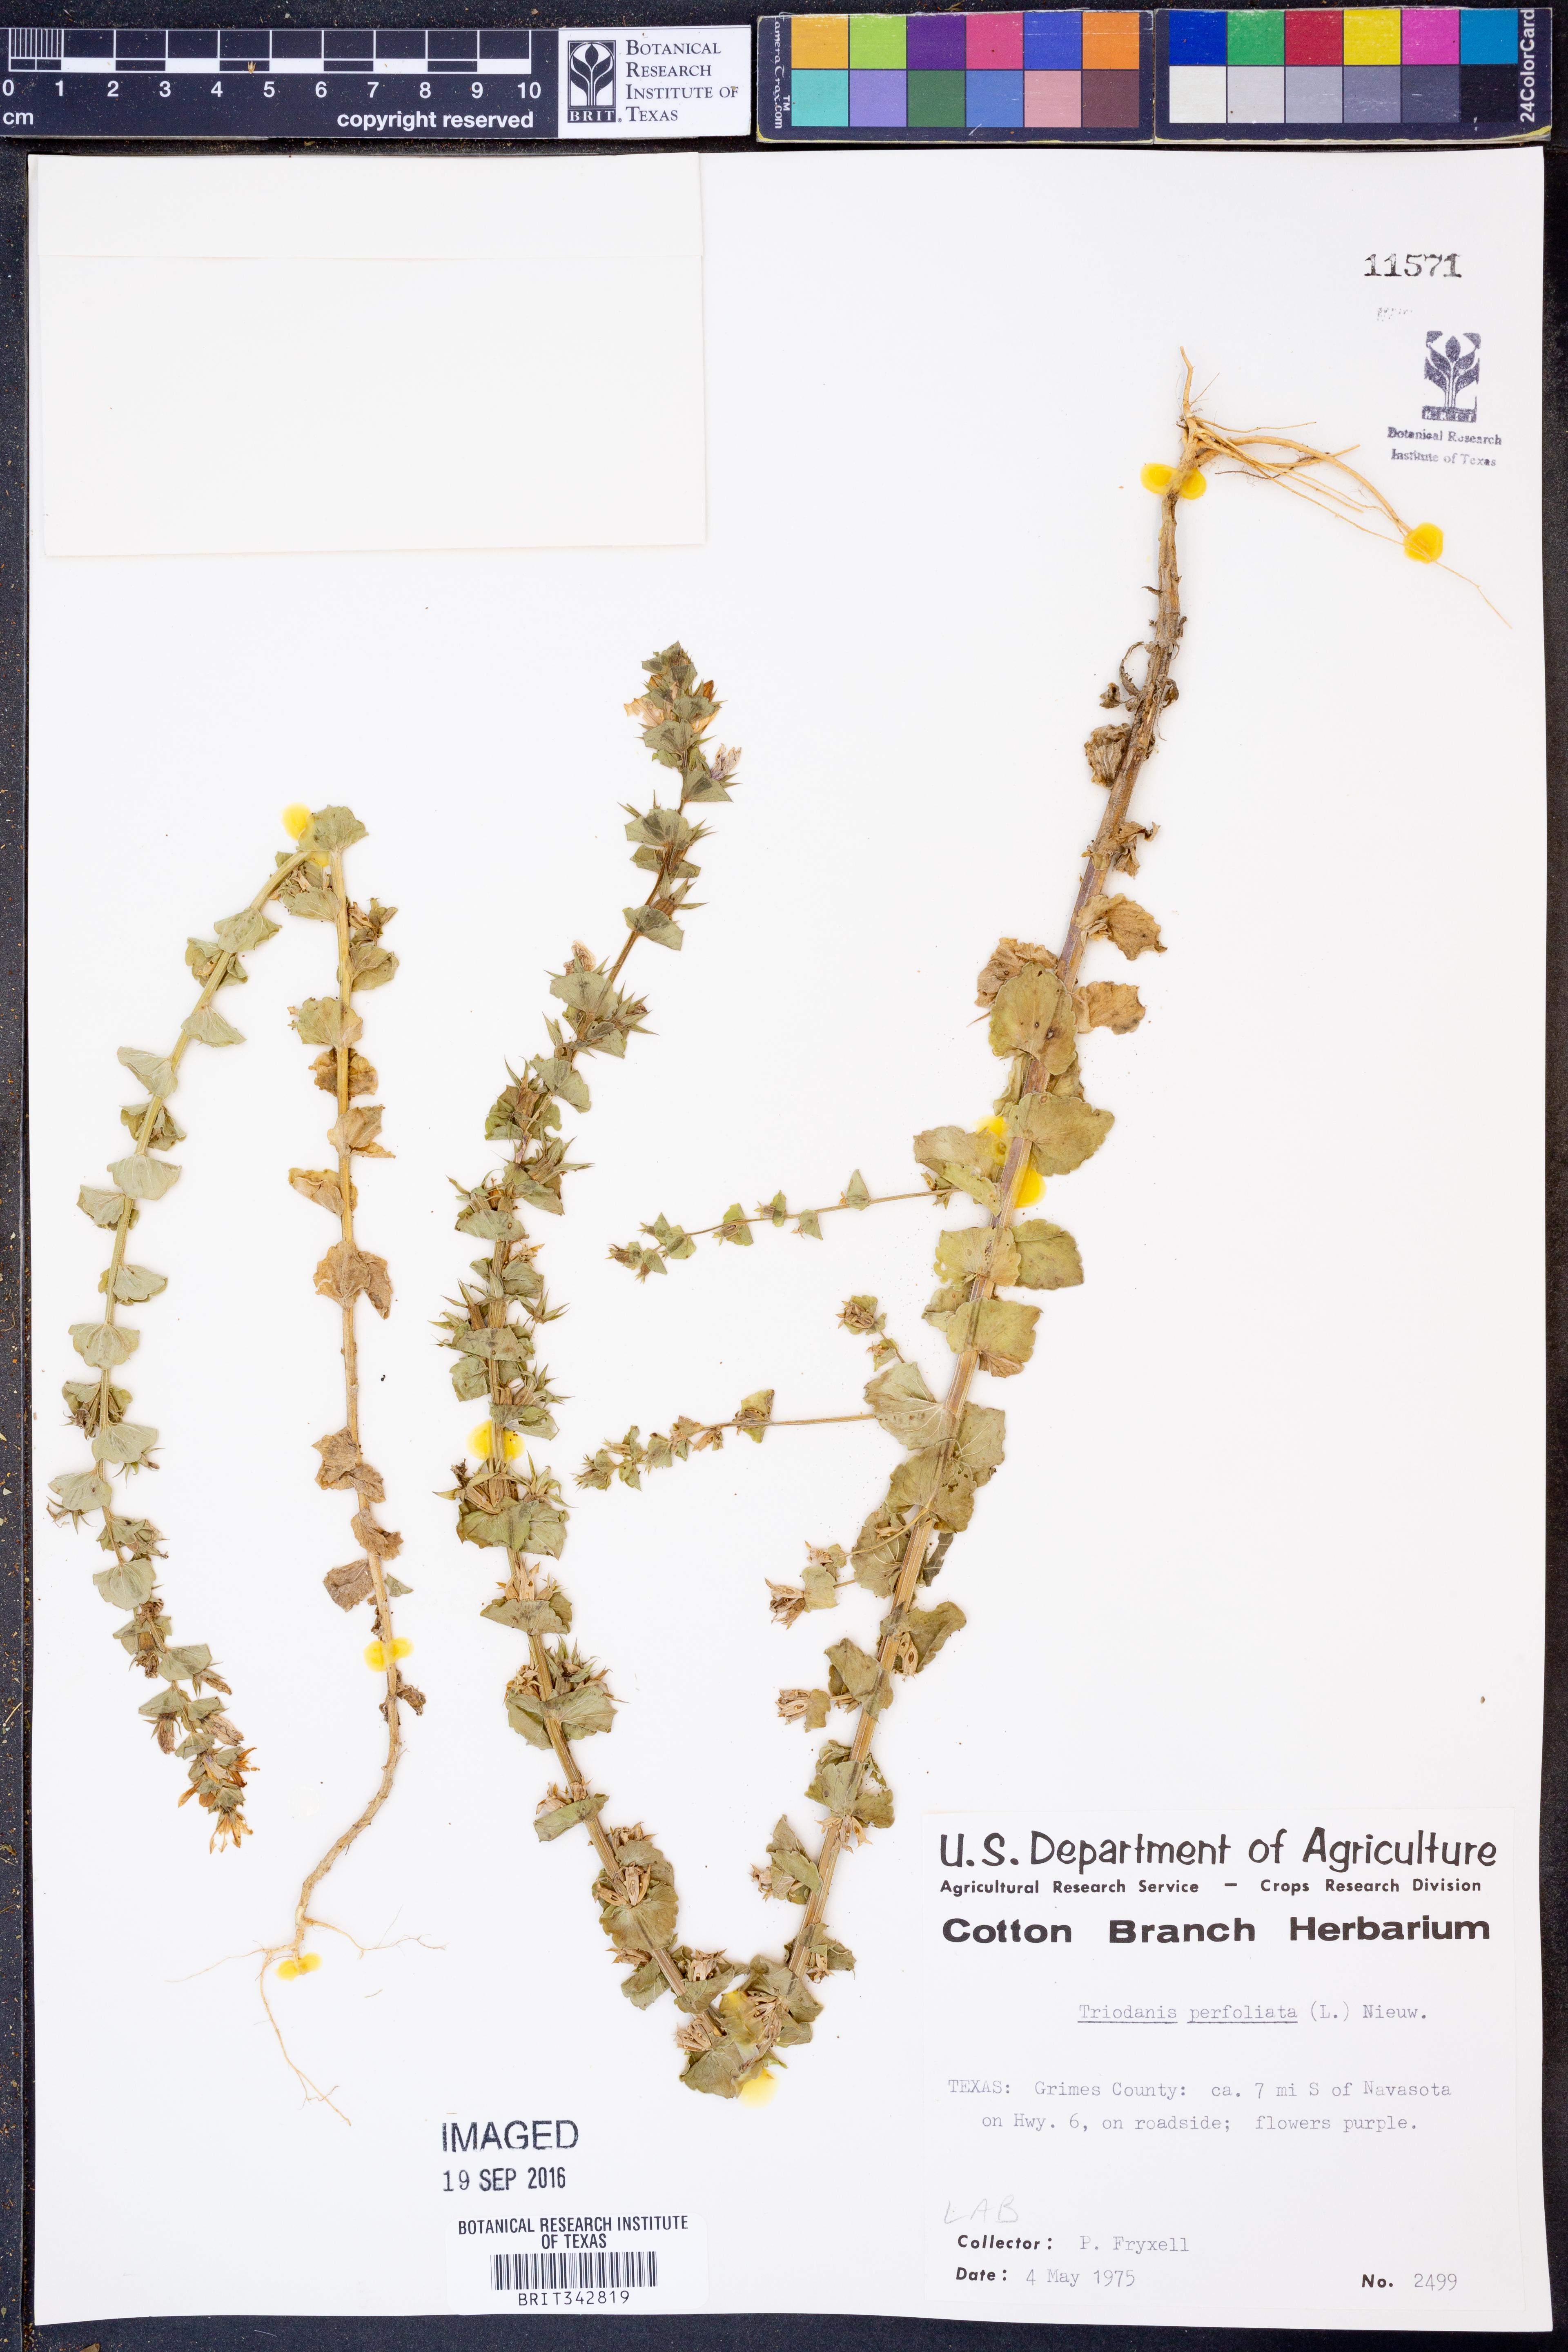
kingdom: Plantae
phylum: Tracheophyta
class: Magnoliopsida
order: Asterales
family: Campanulaceae
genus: Triodanis
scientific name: Triodanis perfoliata
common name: Clasping venus' looking-glass
